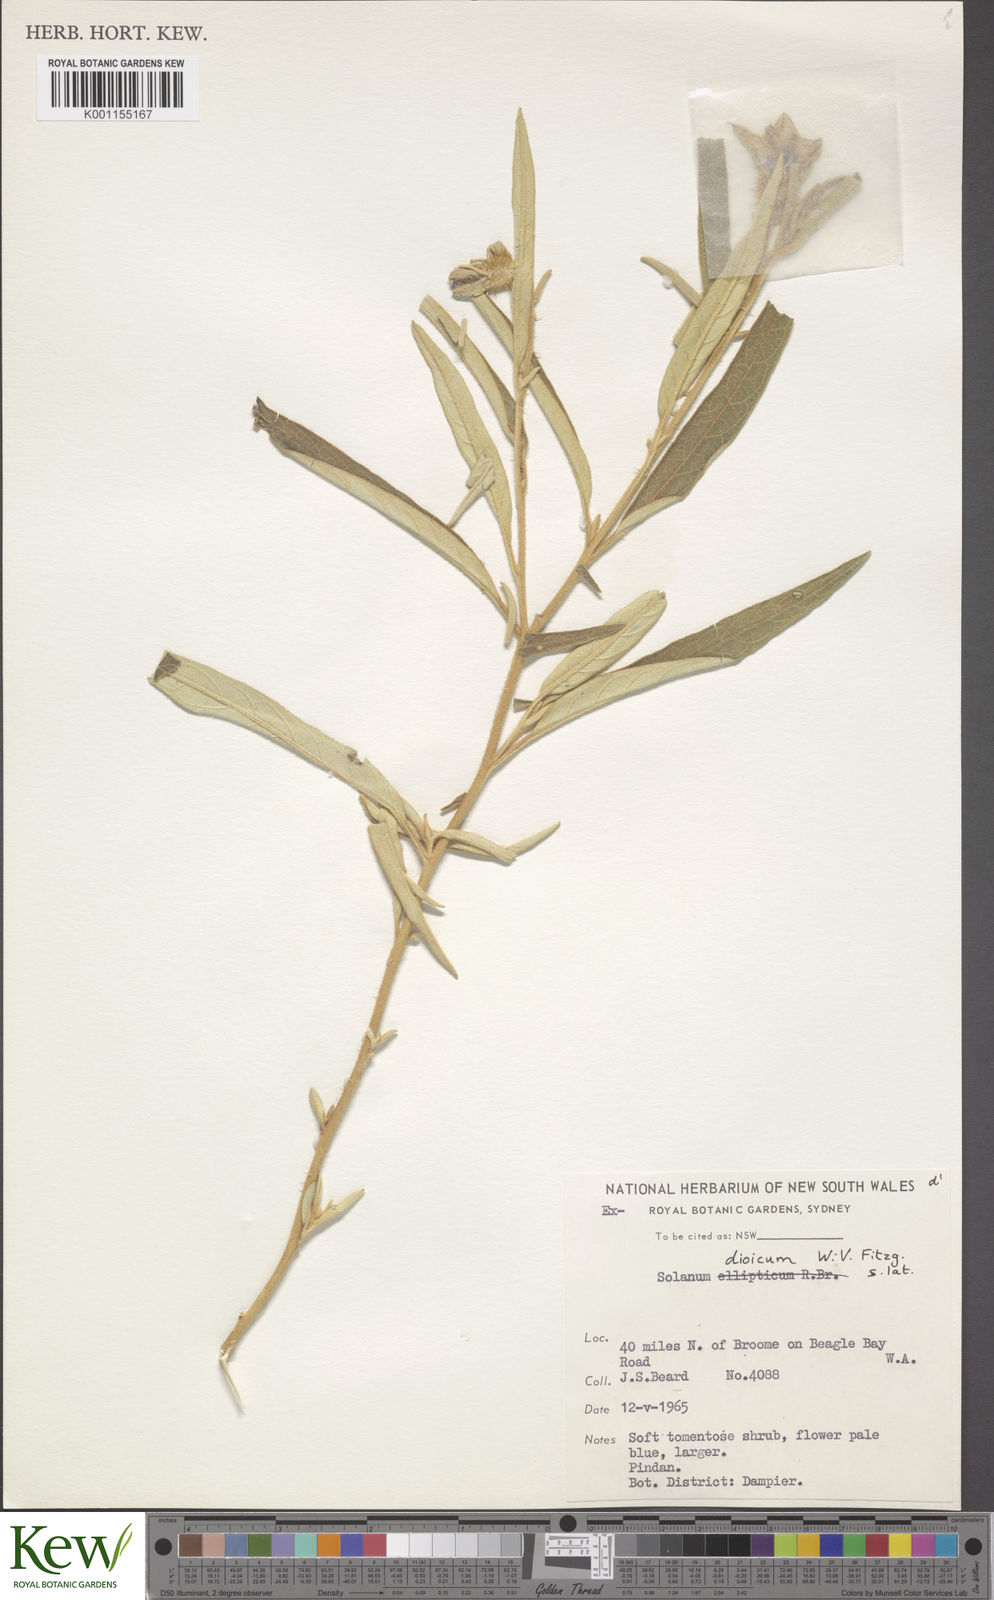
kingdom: Plantae
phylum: Tracheophyta
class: Magnoliopsida
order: Solanales
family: Solanaceae
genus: Solanum
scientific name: Solanum dioicum
